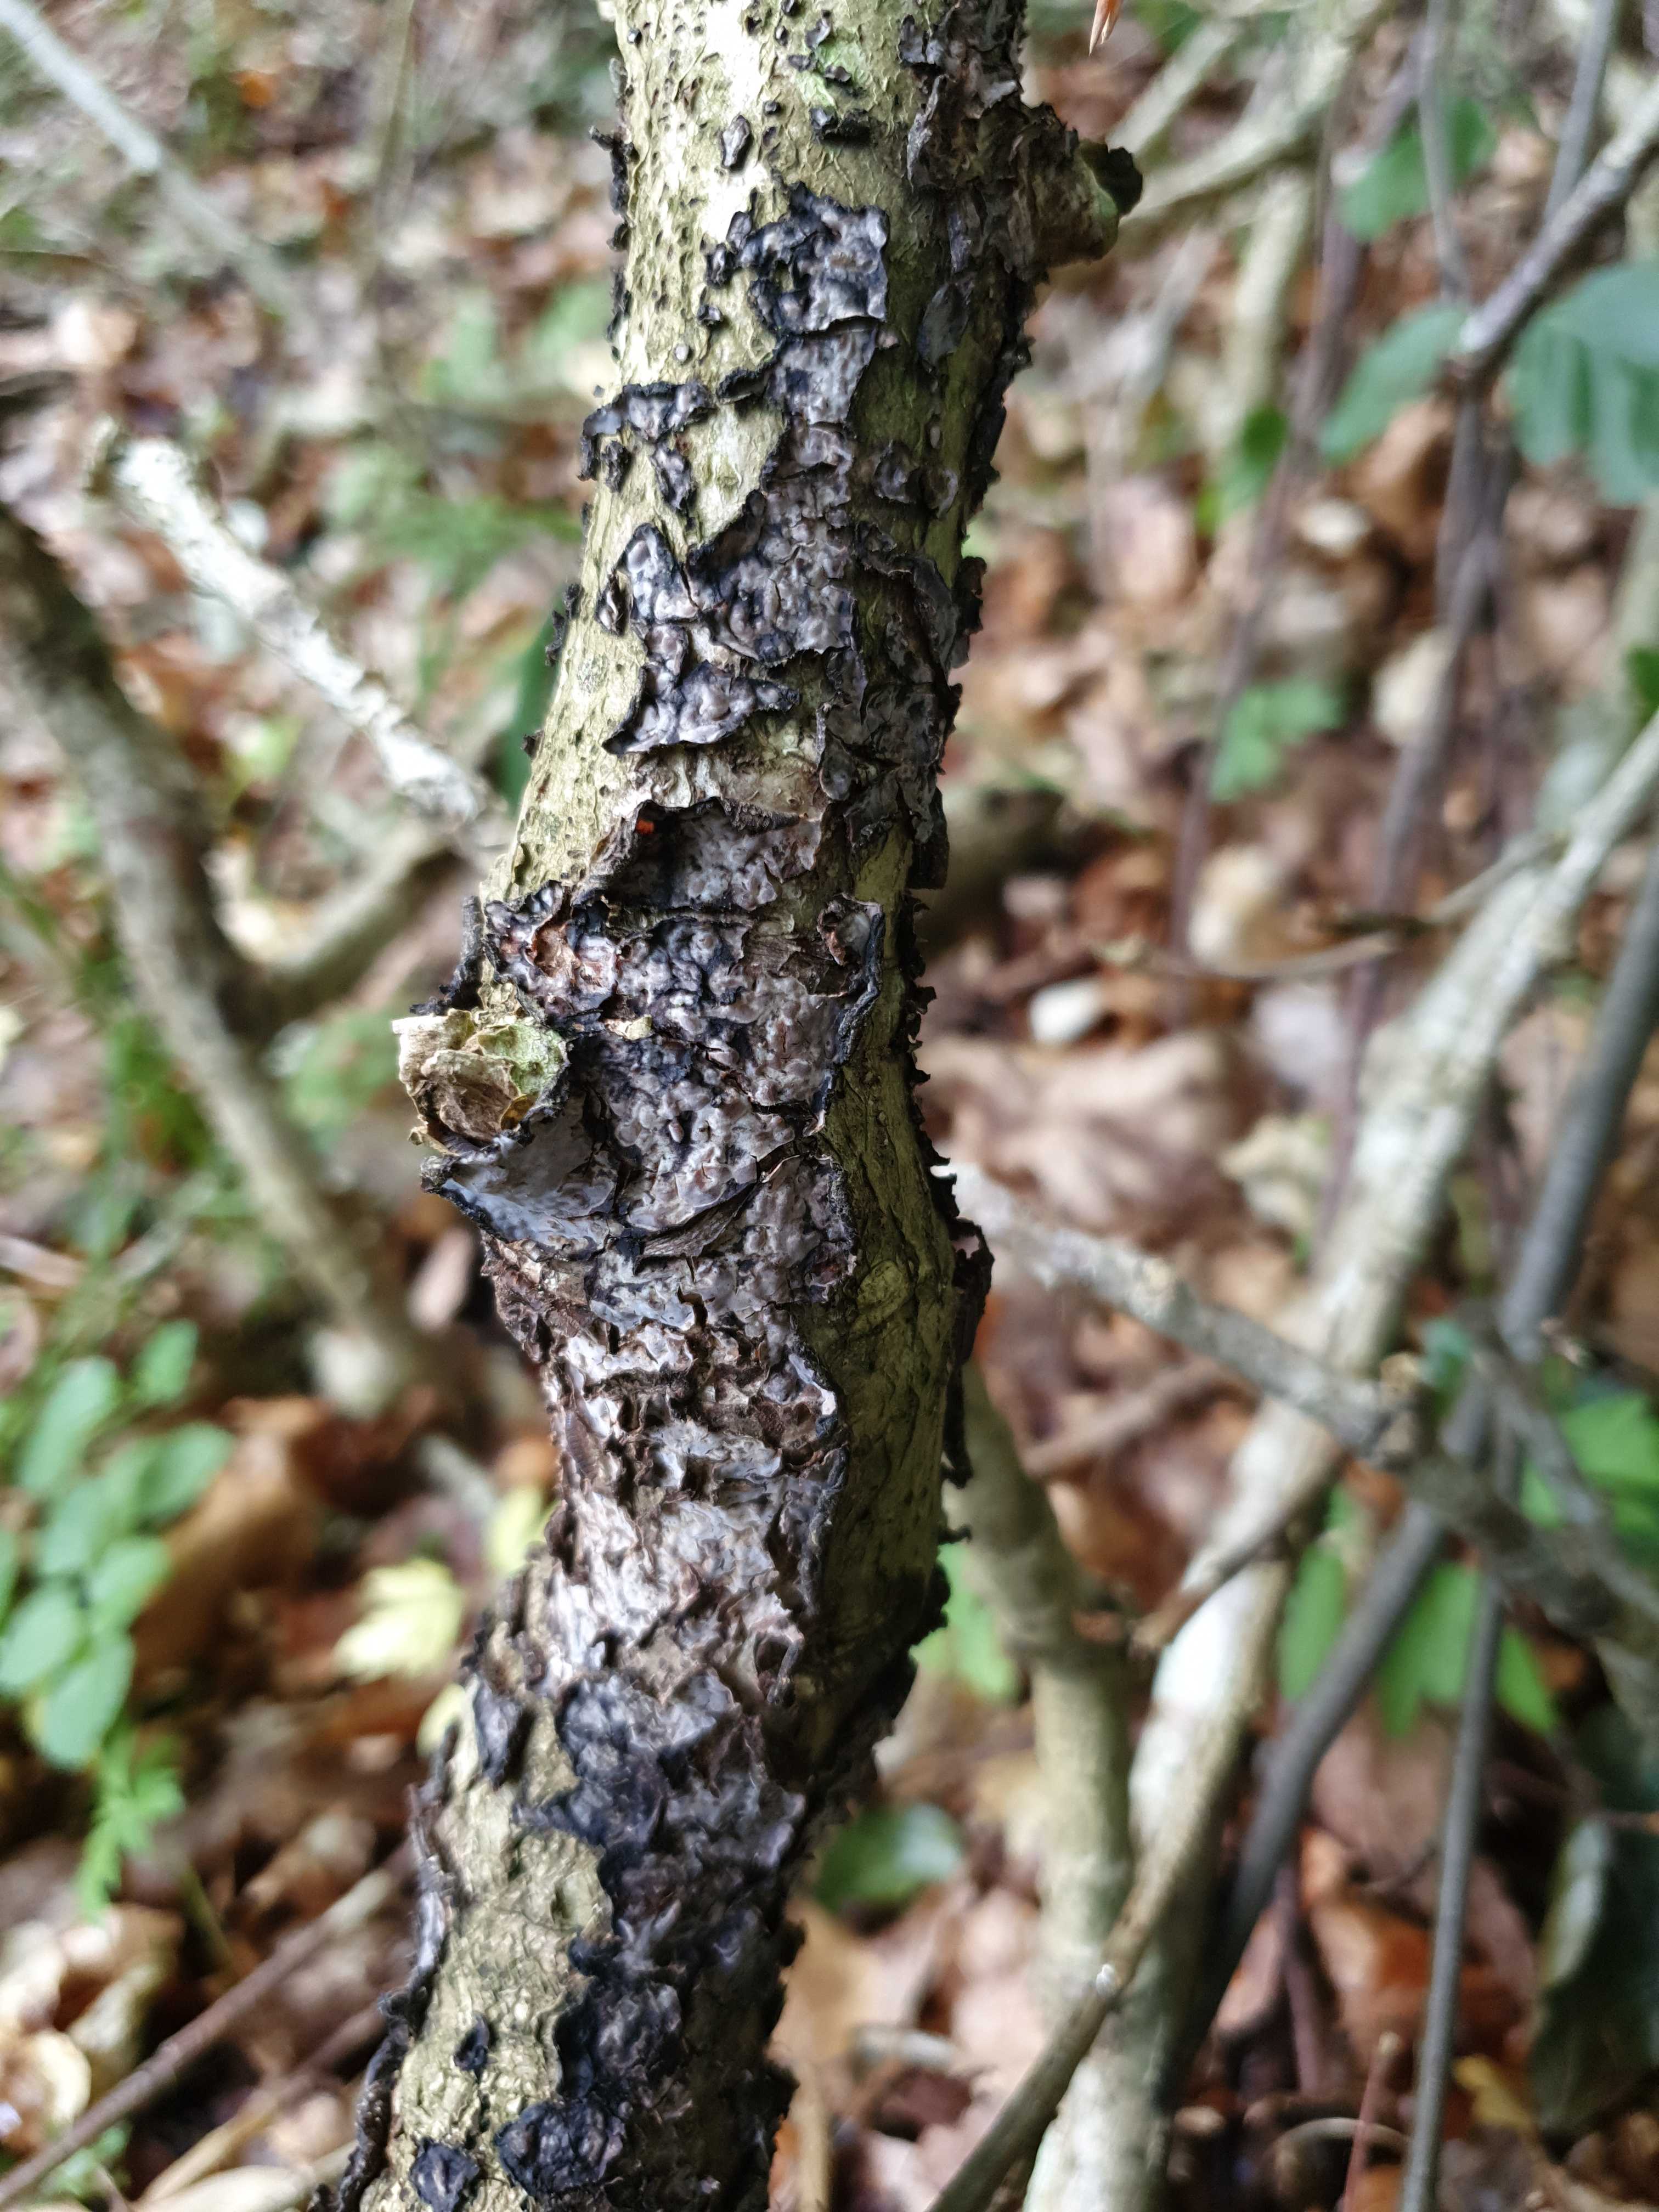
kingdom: Fungi
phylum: Basidiomycota
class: Agaricomycetes
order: Russulales
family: Peniophoraceae
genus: Peniophora
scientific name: Peniophora quercina
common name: ege-voksskind
